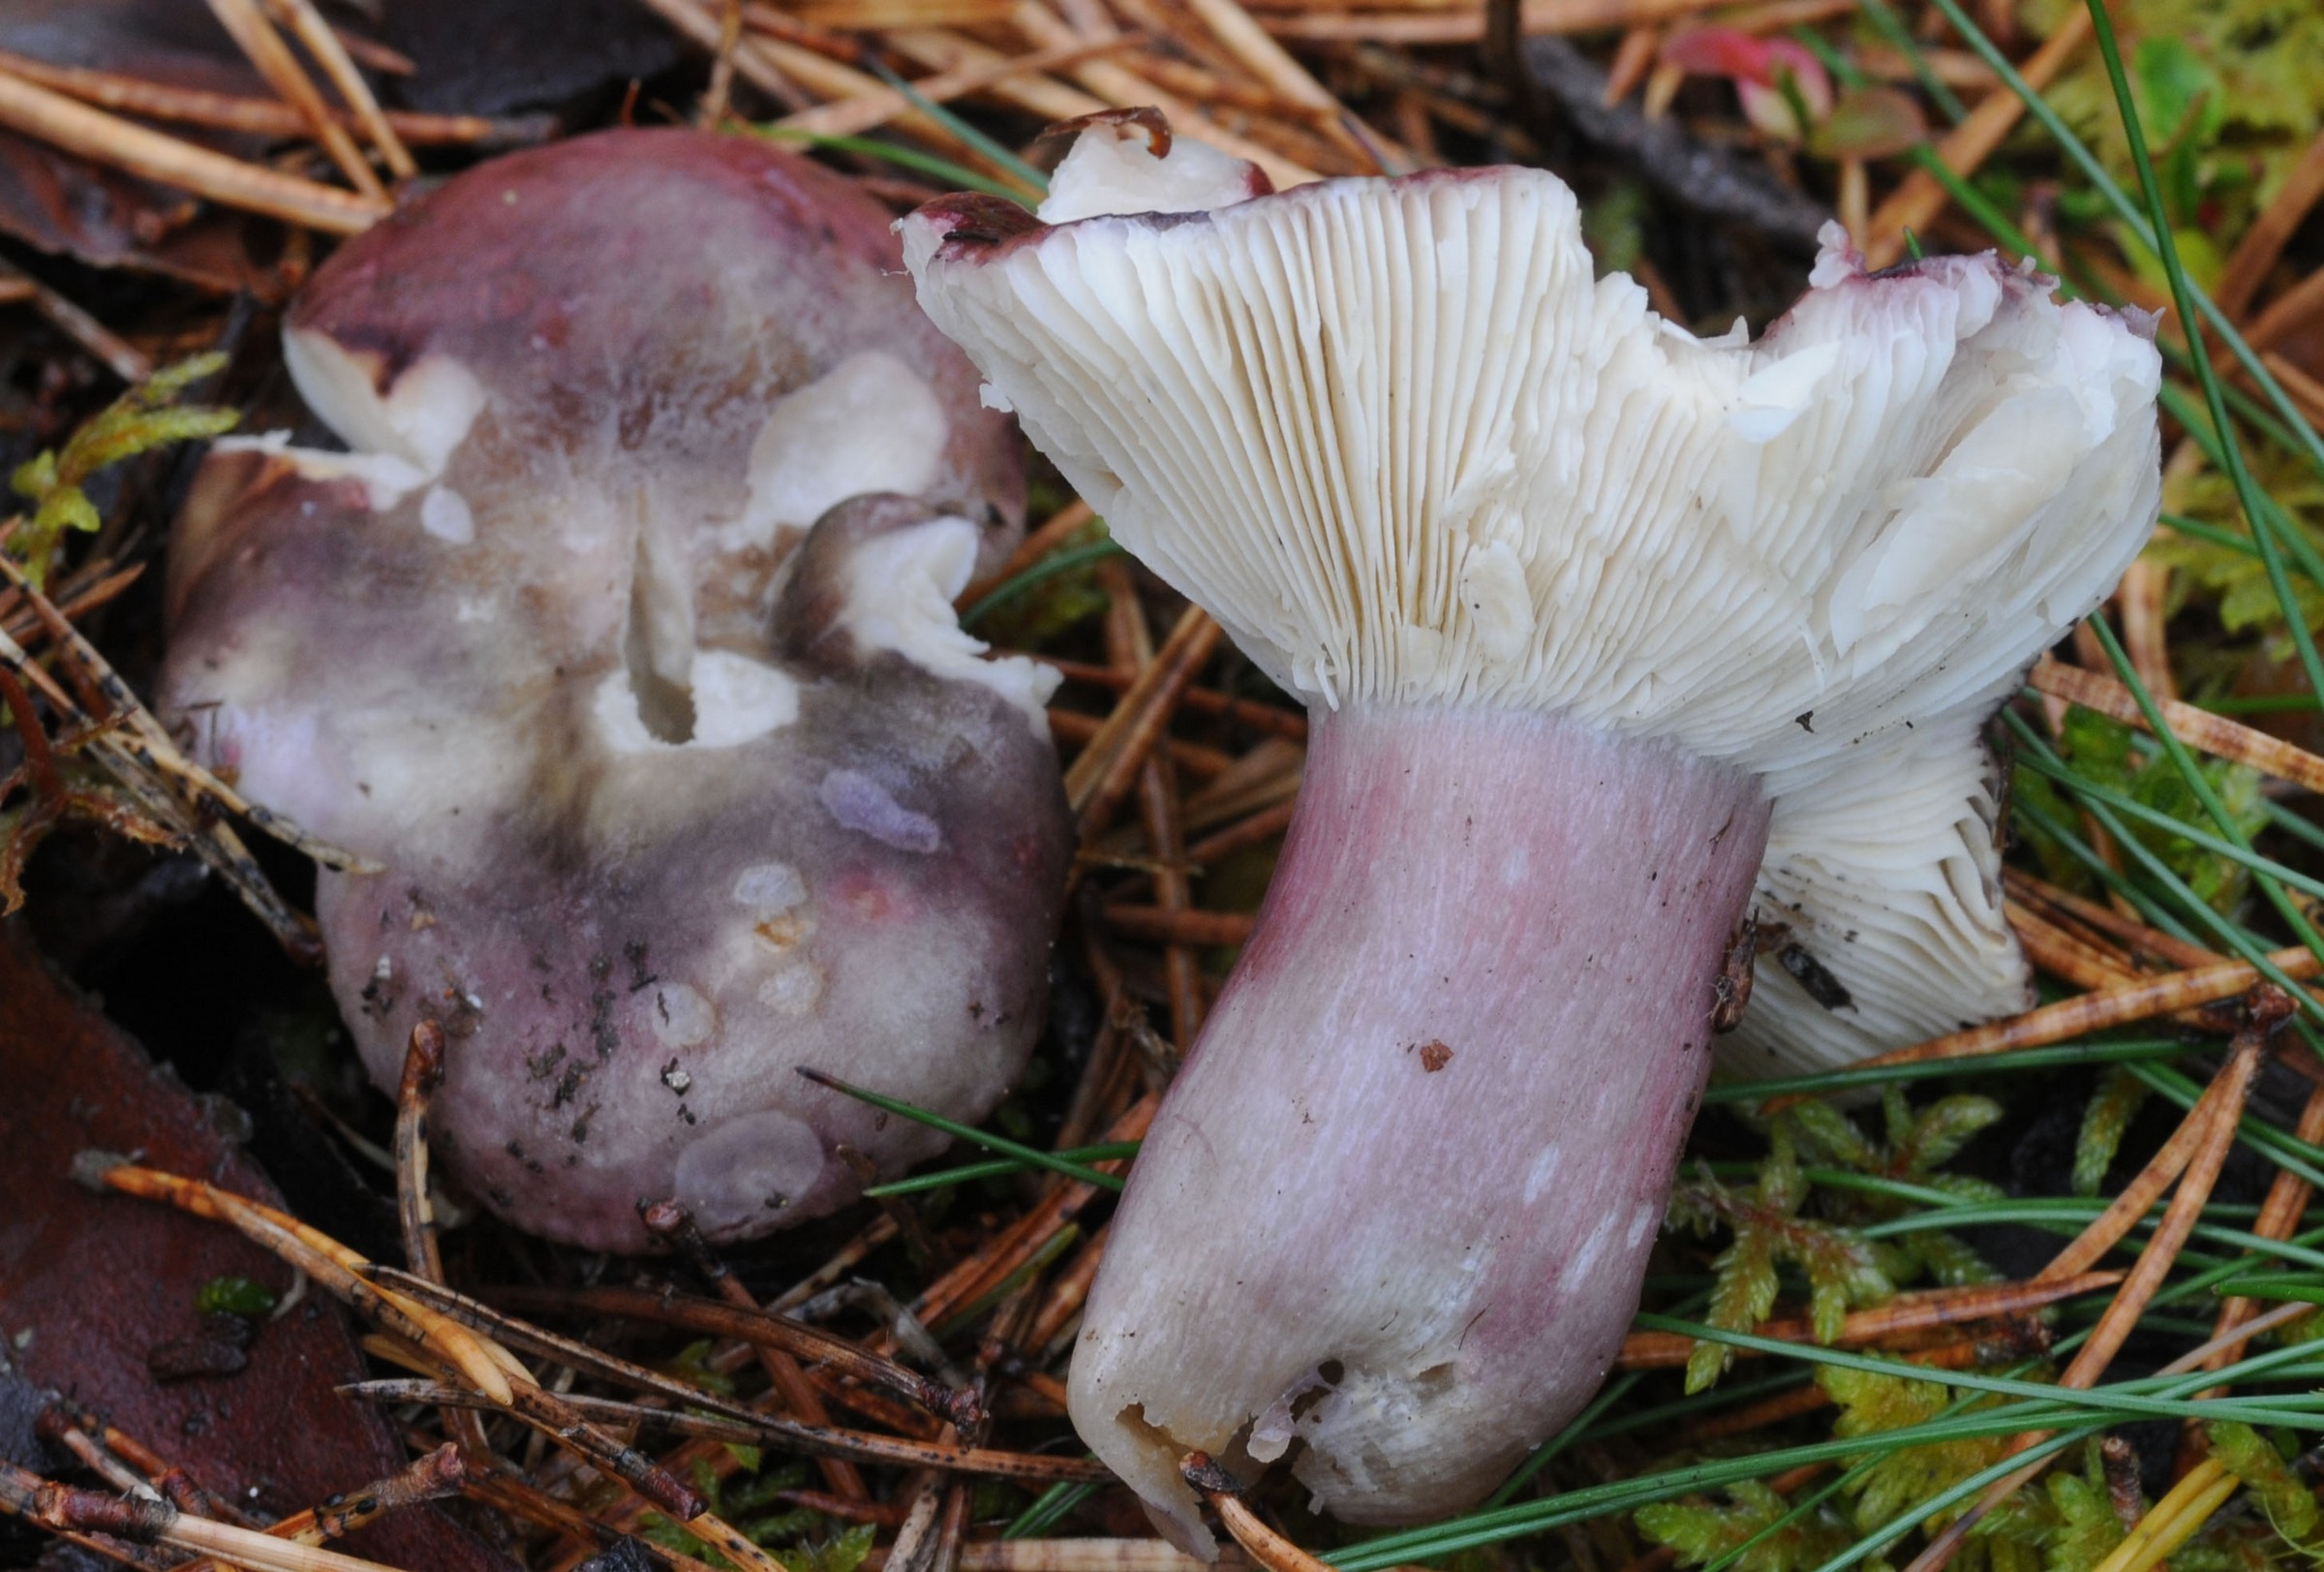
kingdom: Fungi
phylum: Basidiomycota
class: Agaricomycetes
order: Russulales
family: Russulaceae
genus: Russula
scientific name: Russula torulosa
